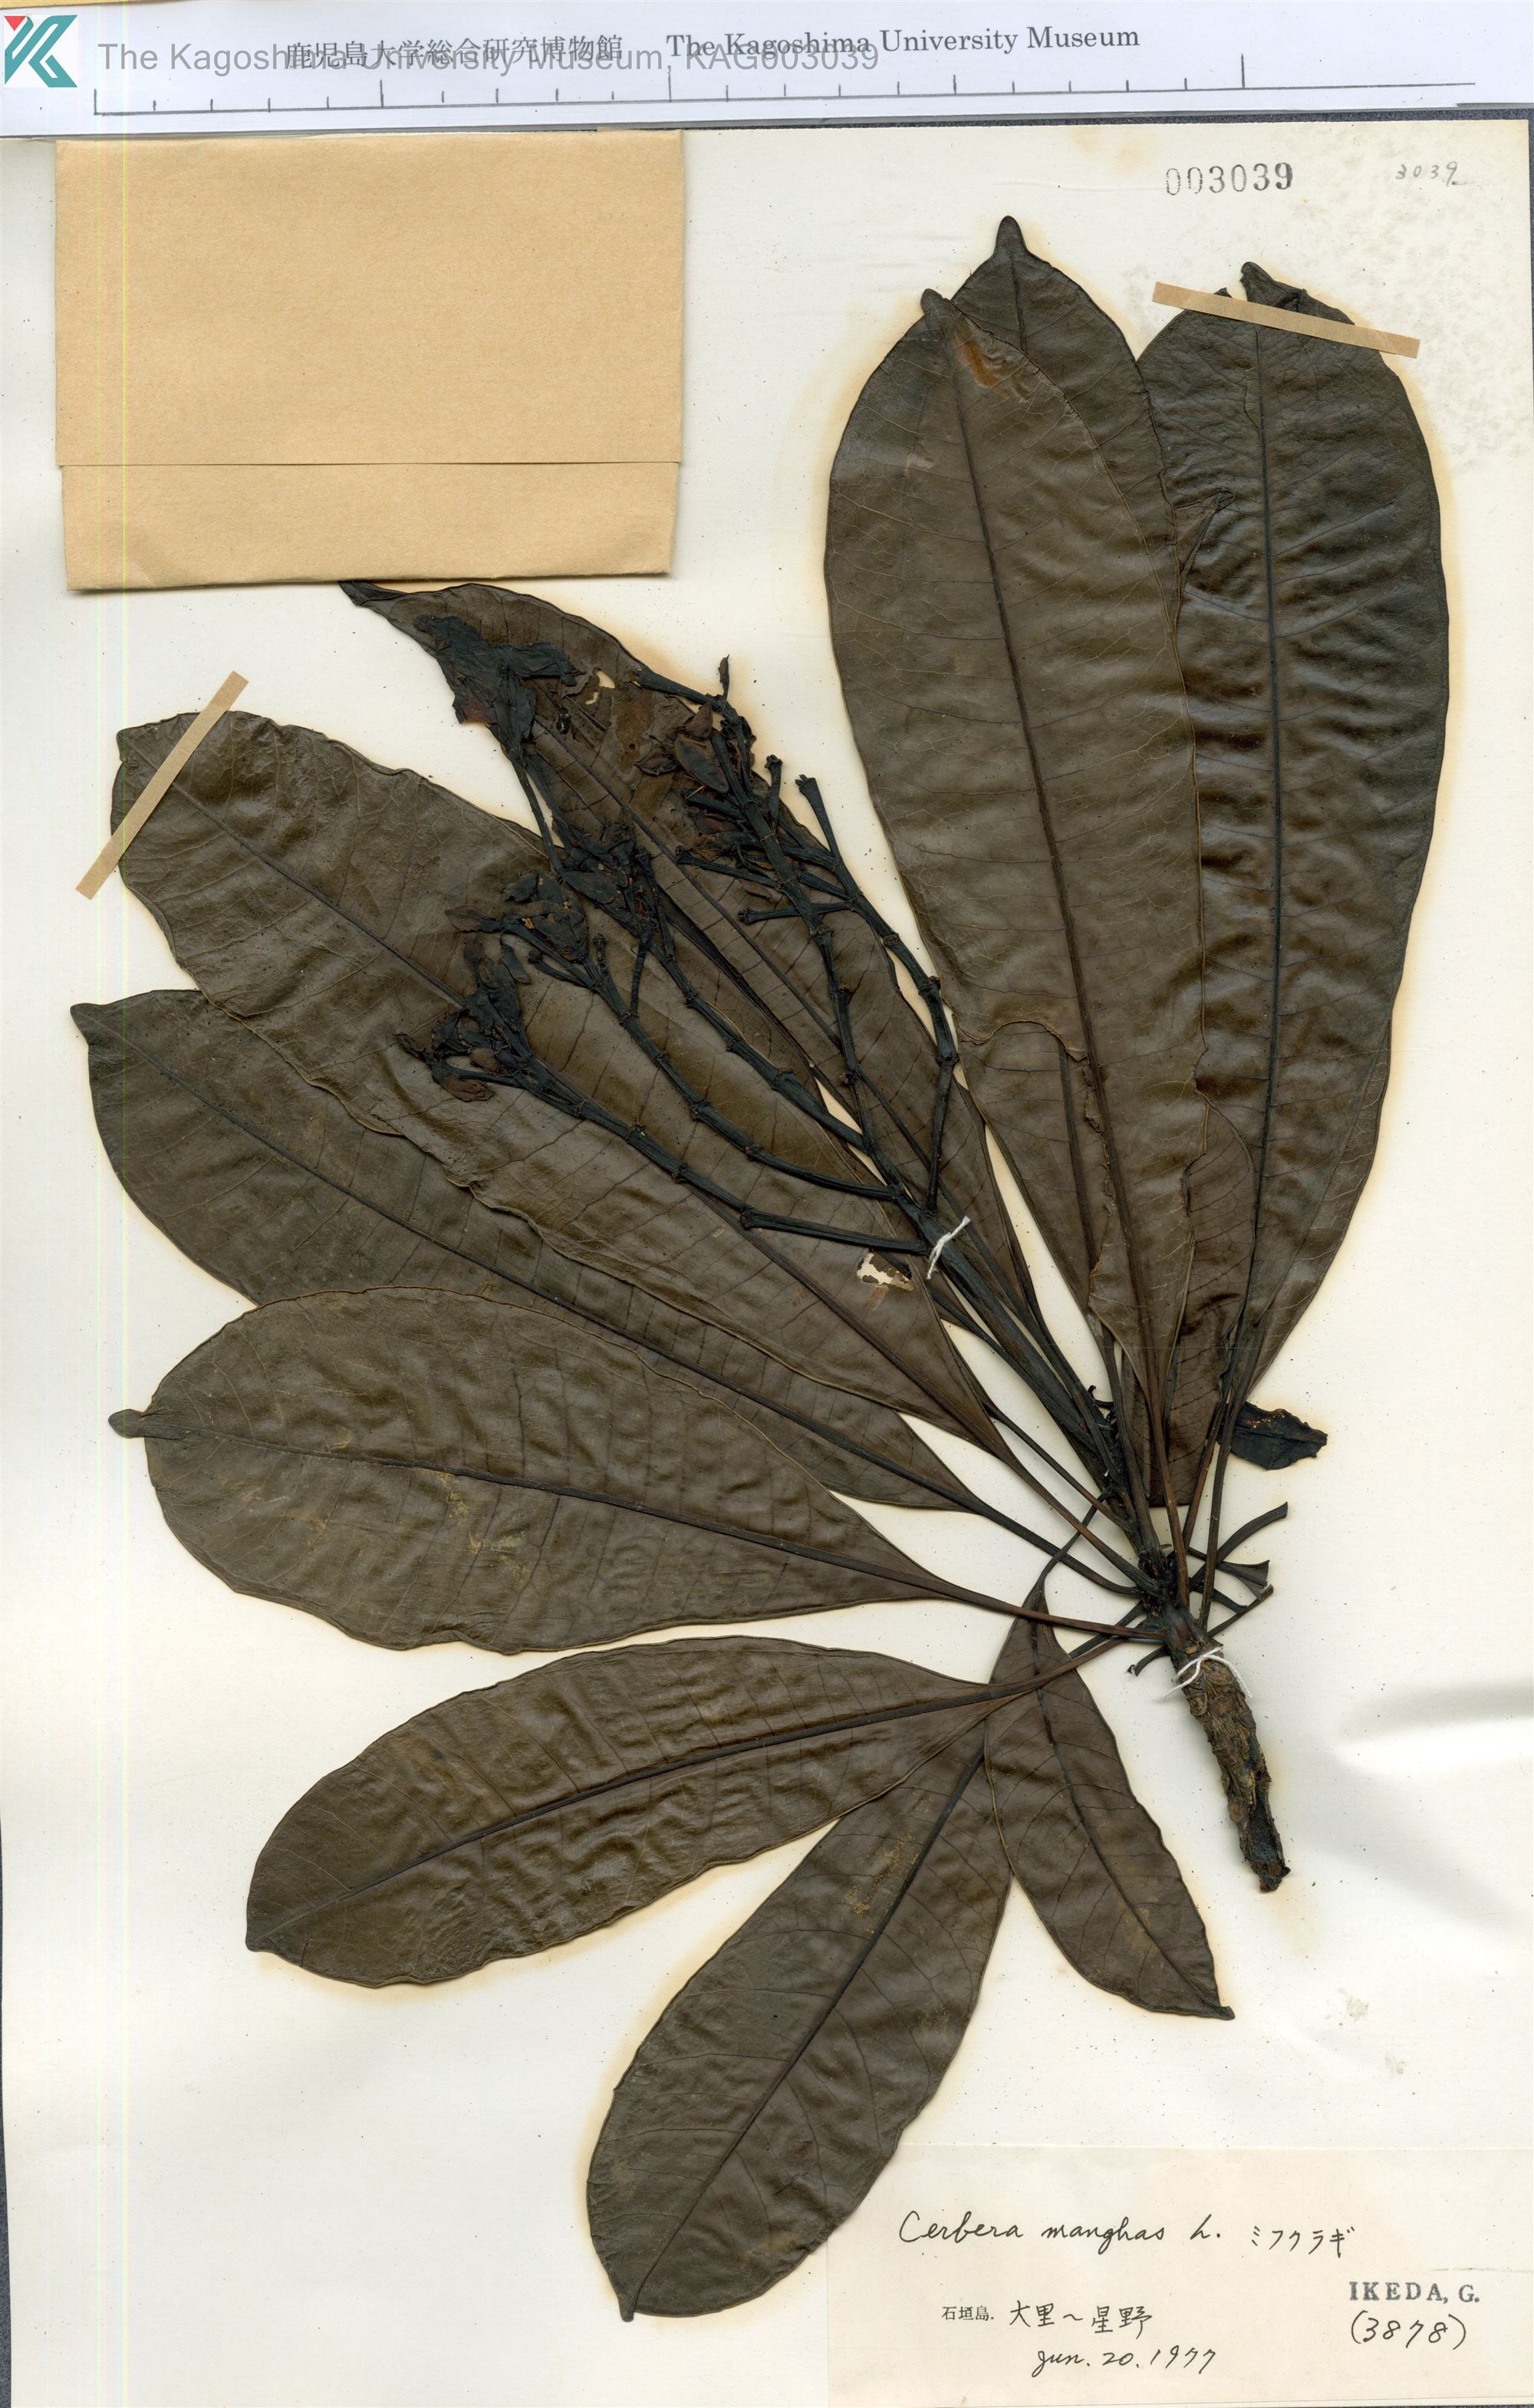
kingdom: Plantae
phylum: Tracheophyta
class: Magnoliopsida
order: Gentianales
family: Apocynaceae
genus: Cerbera
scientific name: Cerbera manghas
